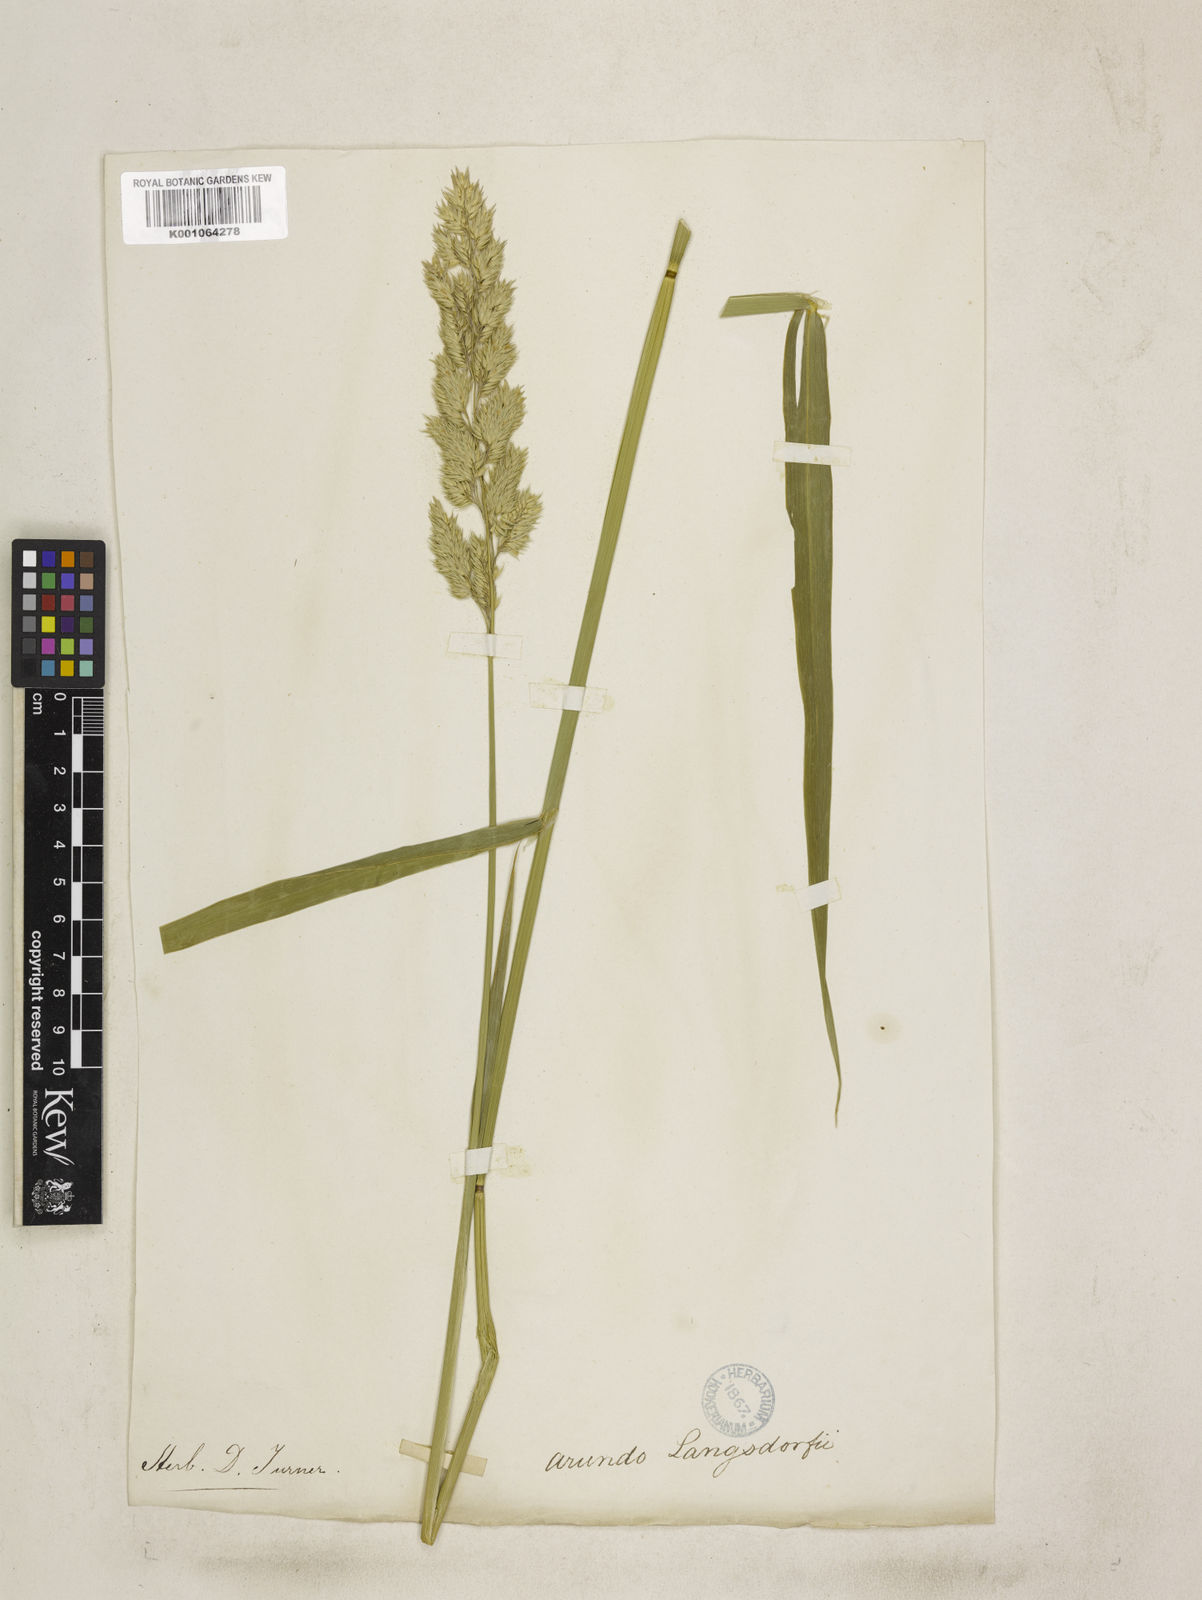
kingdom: Plantae
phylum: Tracheophyta
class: Liliopsida
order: Poales
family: Poaceae
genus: Phalaris
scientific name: Phalaris arundinacea
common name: Reed canary-grass
